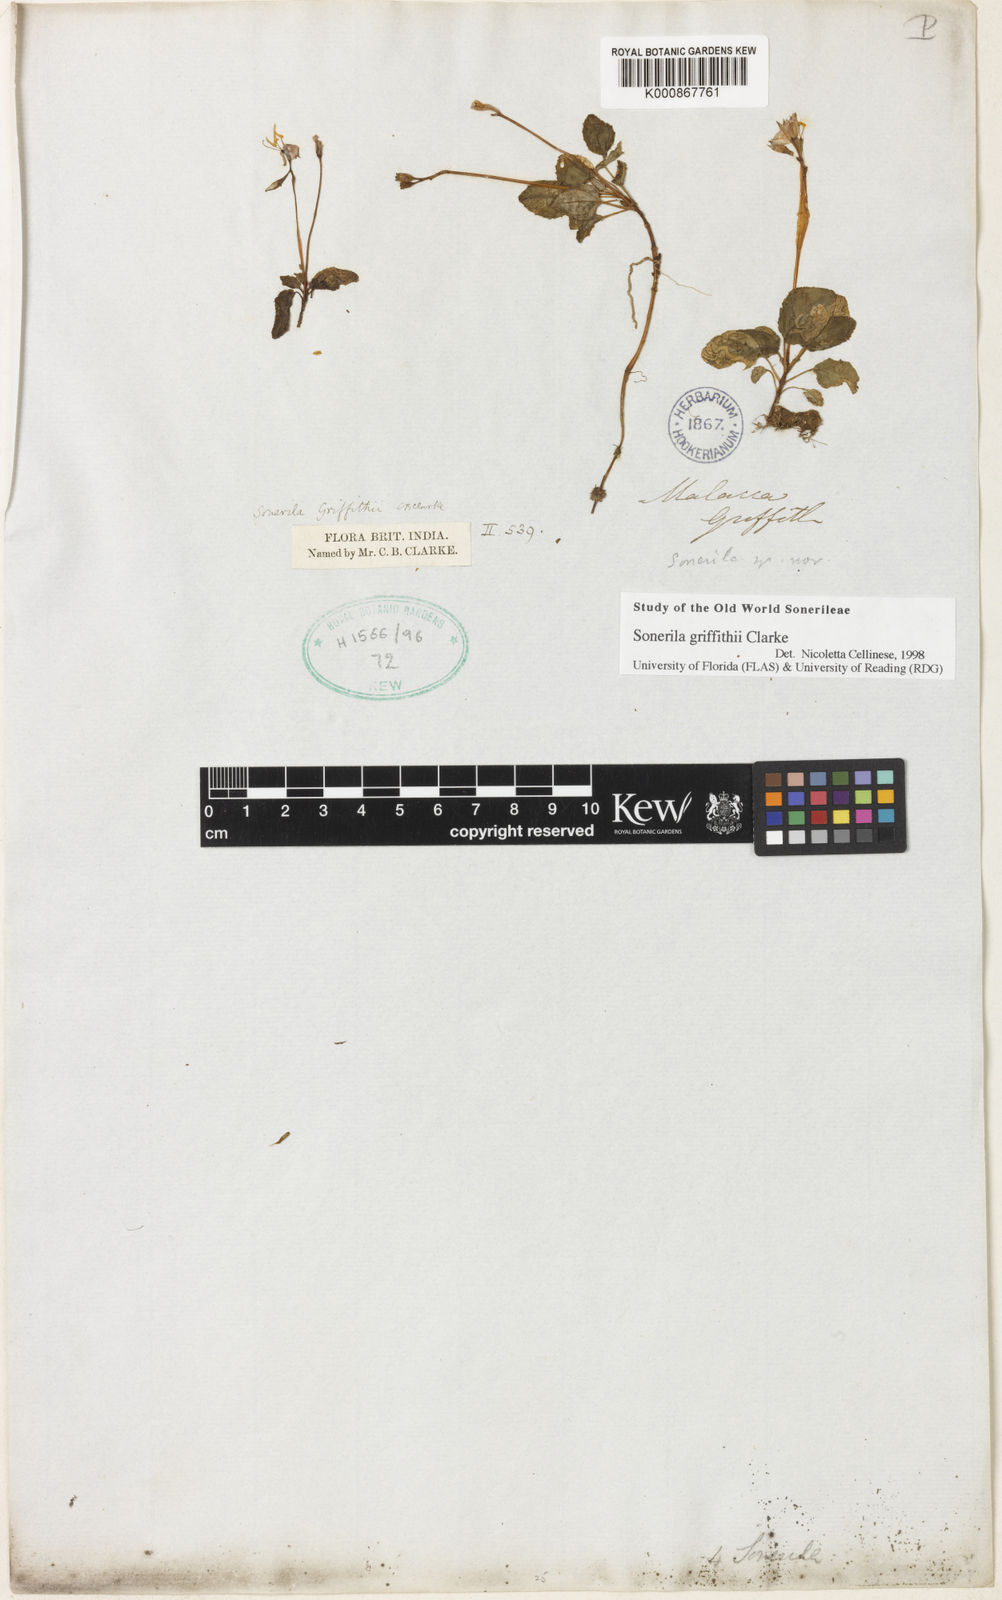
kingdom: Plantae
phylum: Tracheophyta
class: Magnoliopsida
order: Myrtales
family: Melastomataceae
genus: Sonerila
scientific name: Sonerila griffithii
